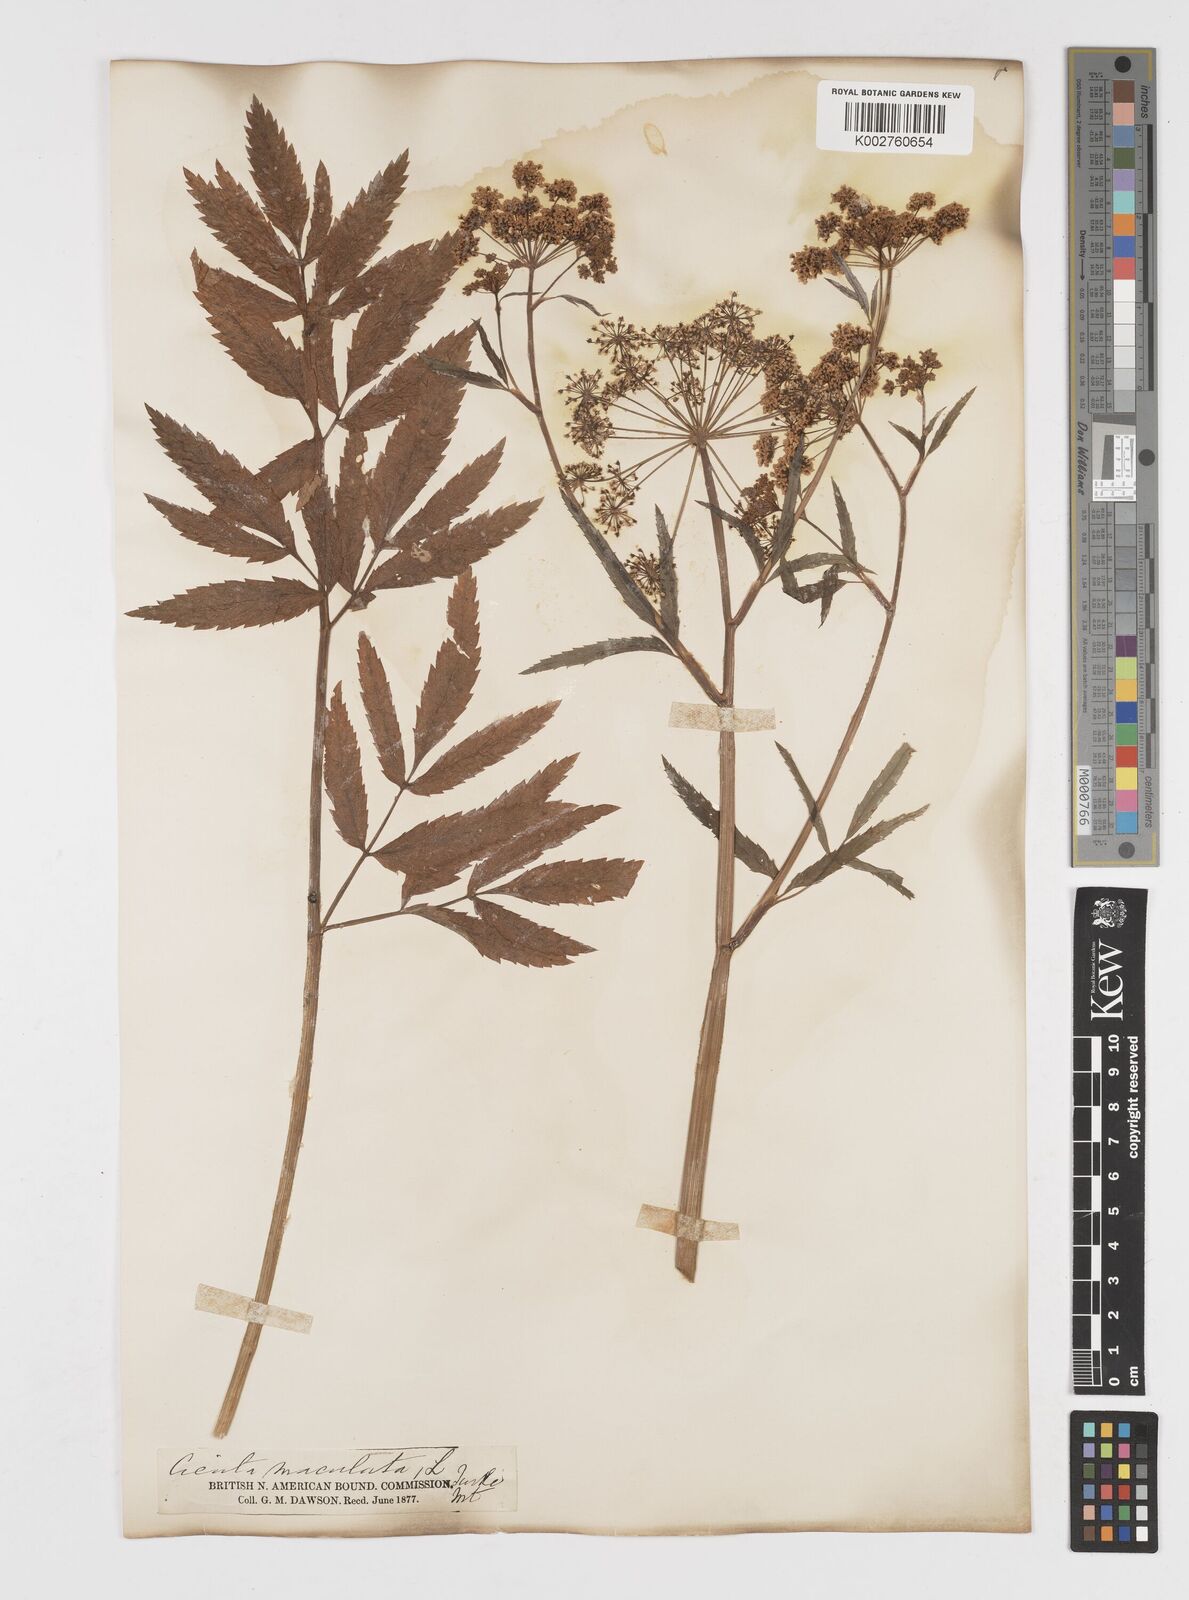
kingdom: Plantae
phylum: Tracheophyta
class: Magnoliopsida
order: Apiales
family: Apiaceae
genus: Cicuta
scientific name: Cicuta douglasii
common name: Western water-hemlock
